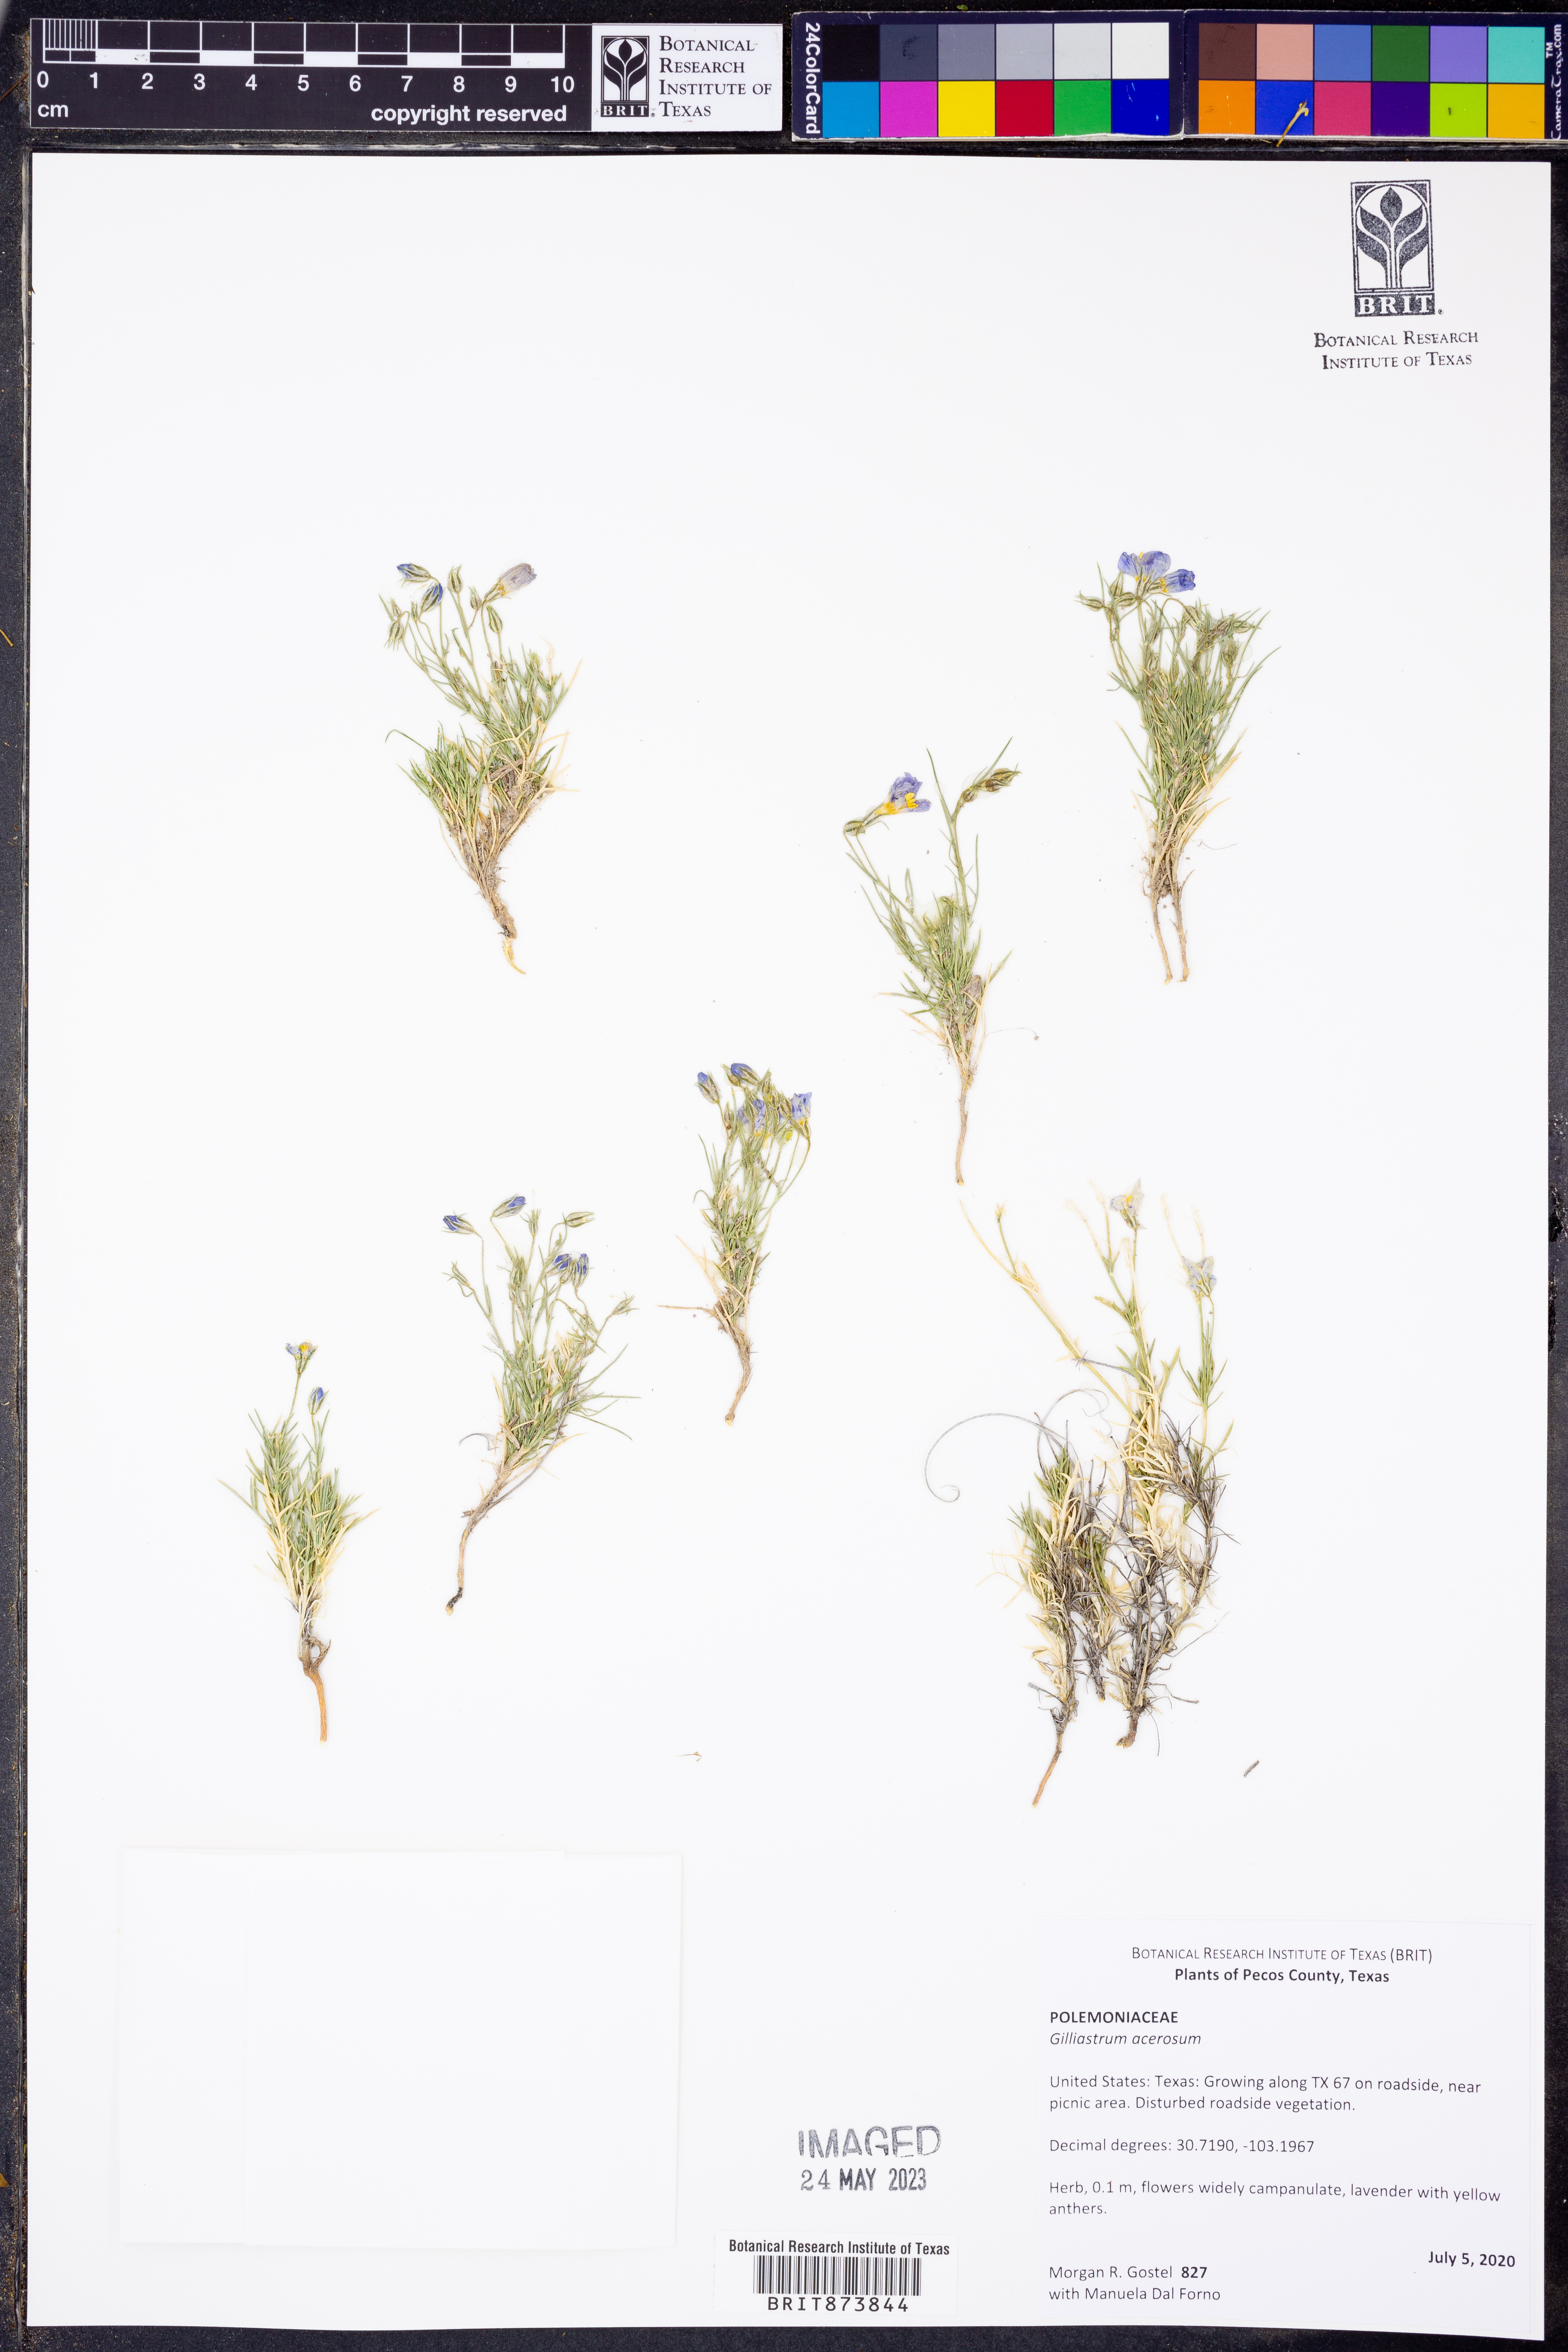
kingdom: Plantae
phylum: Tracheophyta
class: Magnoliopsida
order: Ericales
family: Polemoniaceae
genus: Giliastrum
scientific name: Giliastrum acerosum
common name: Bluebowls
